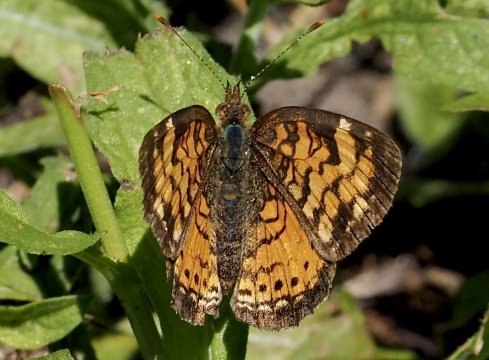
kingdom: Animalia
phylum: Arthropoda
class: Insecta
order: Lepidoptera
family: Nymphalidae
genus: Phyciodes
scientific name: Phyciodes tharos
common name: Northern Crescent
